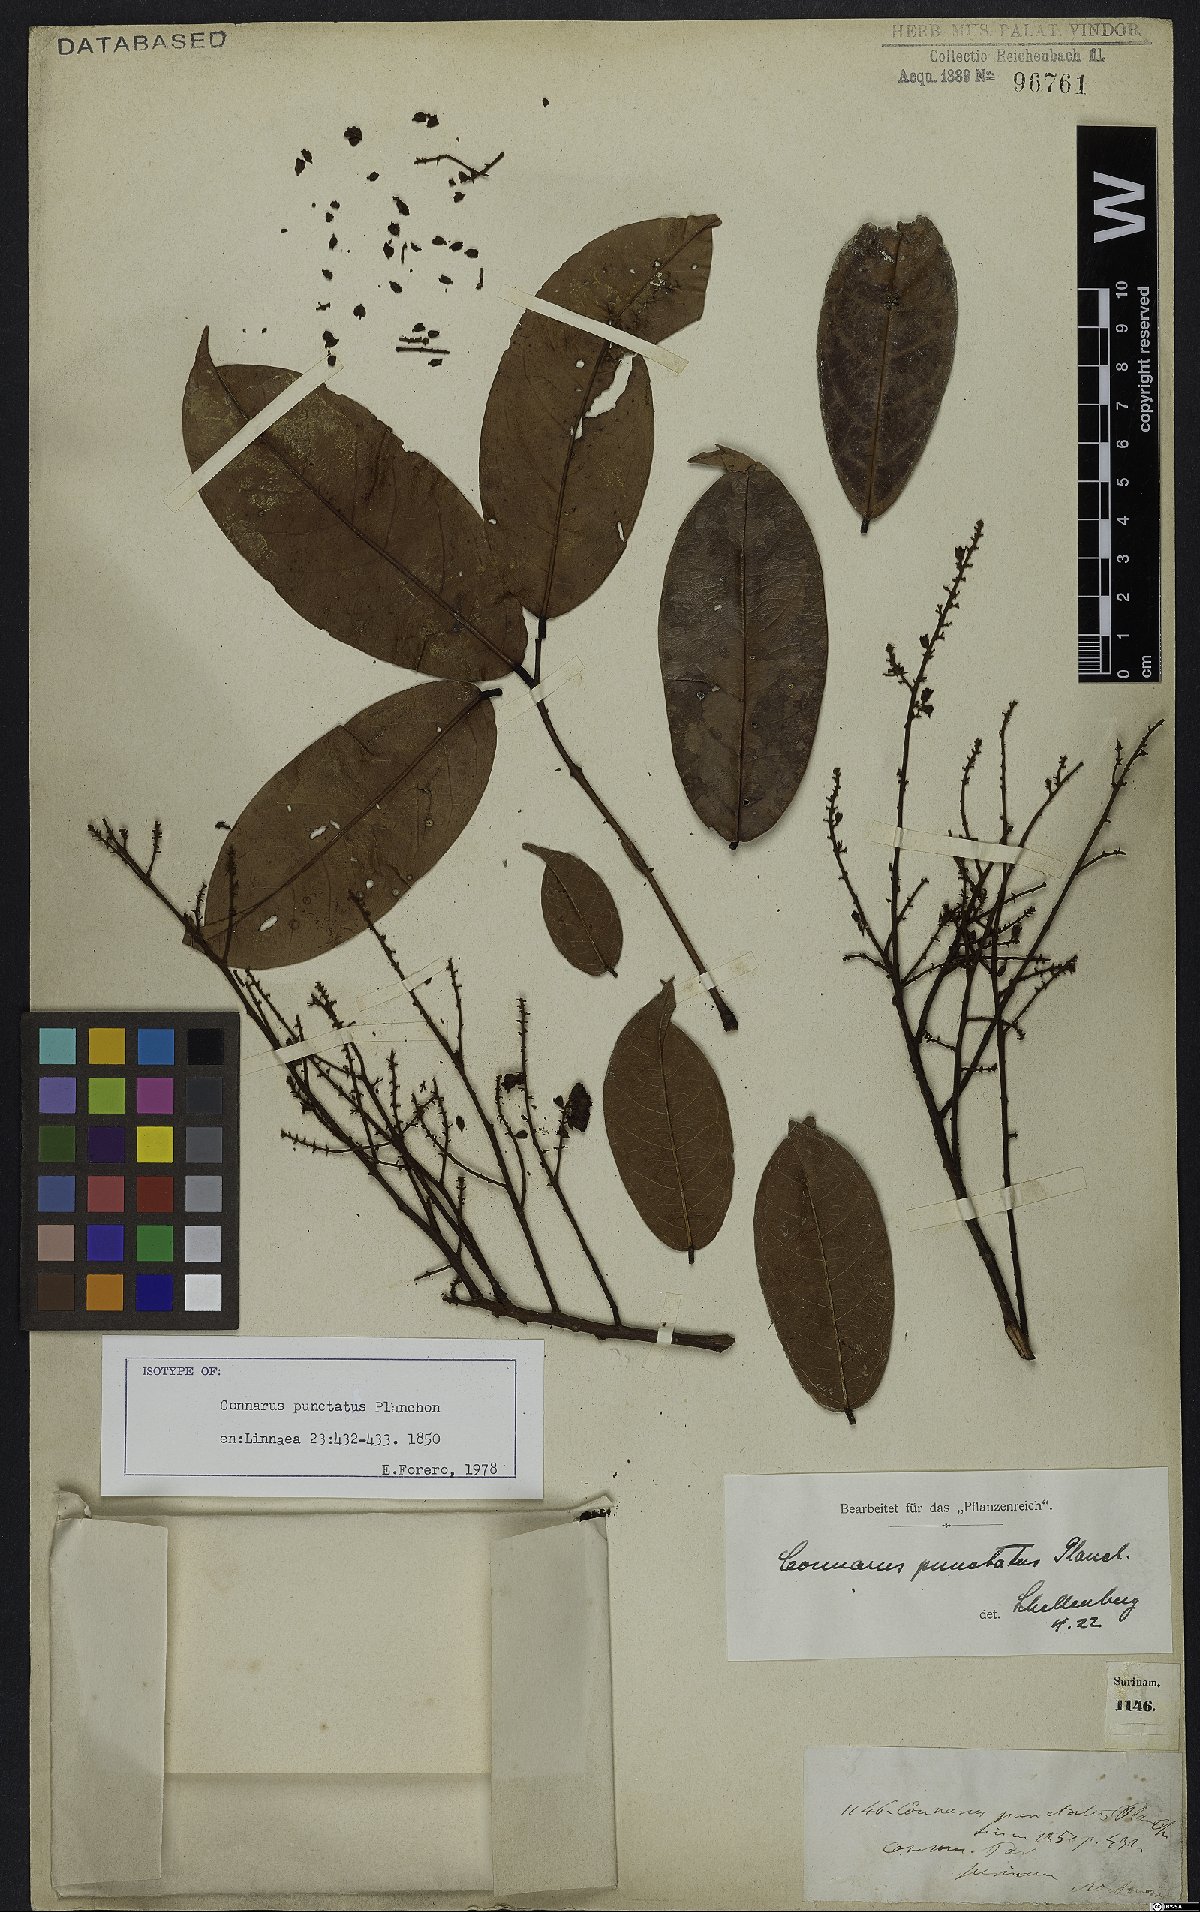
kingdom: Plantae
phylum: Tracheophyta
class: Magnoliopsida
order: Oxalidales
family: Connaraceae
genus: Connarus
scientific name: Connarus punctatus
